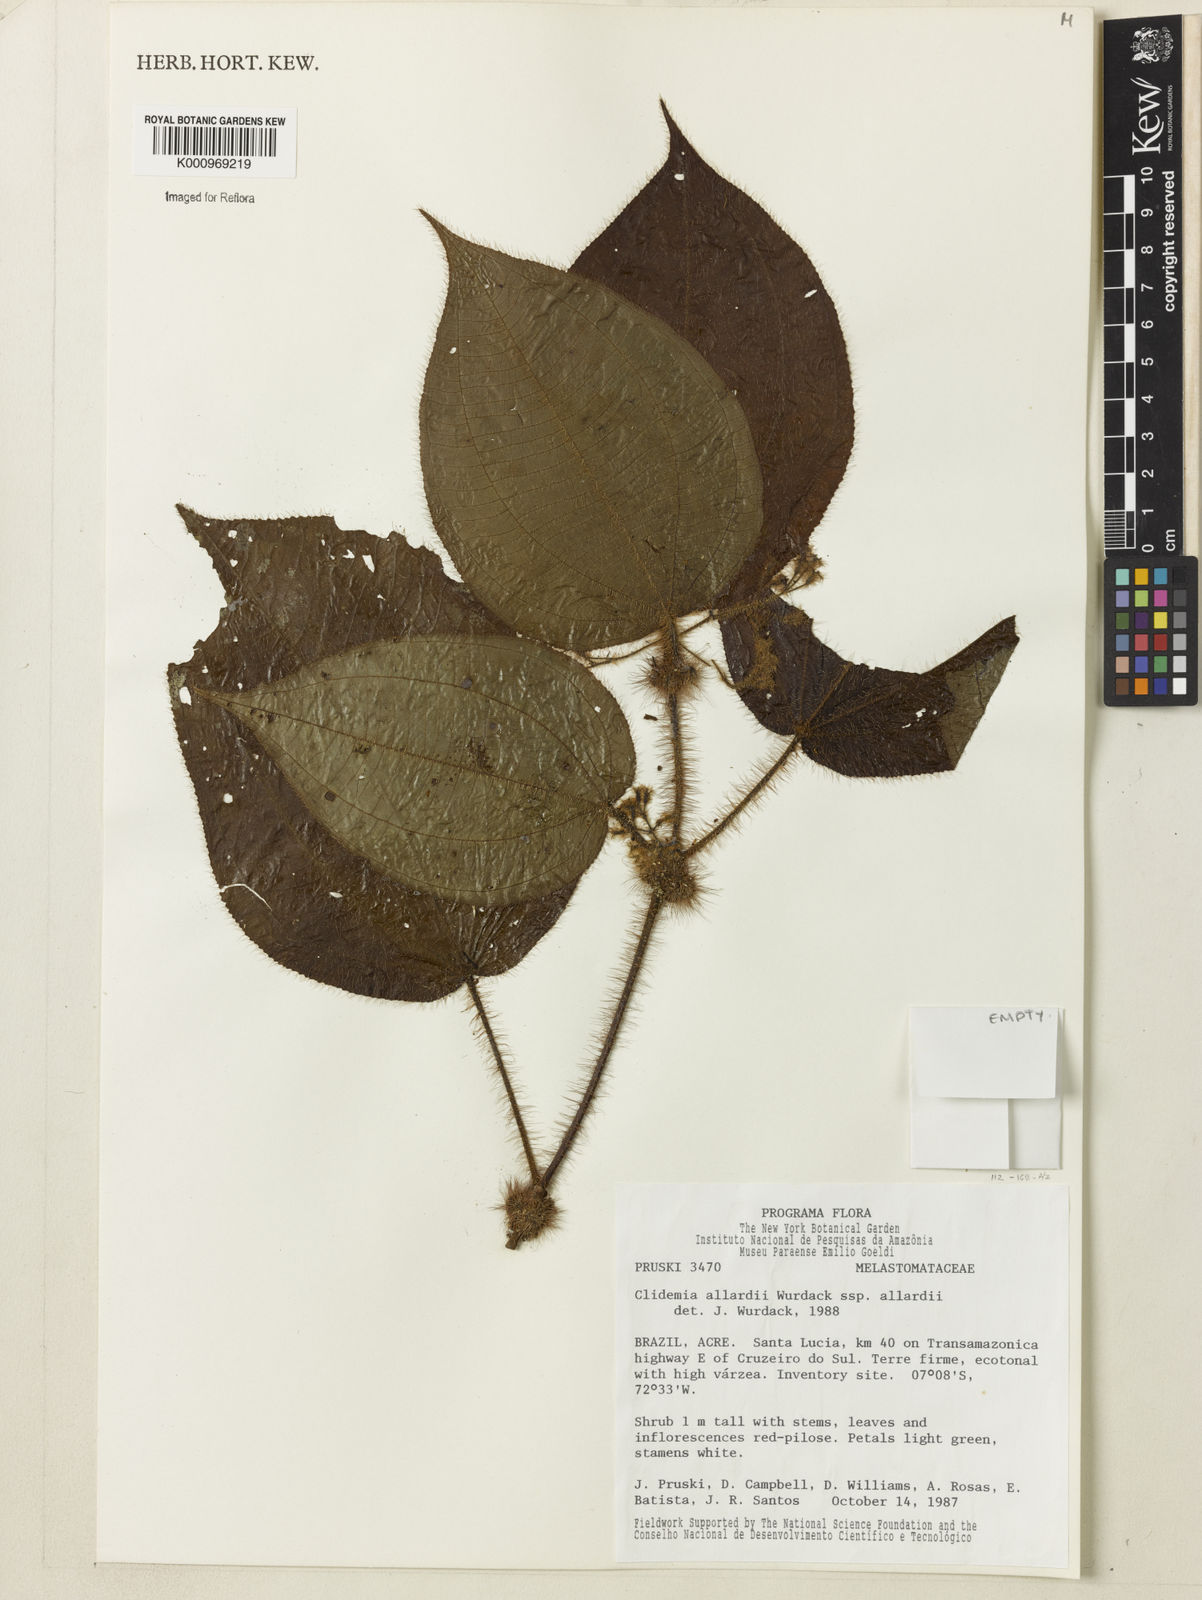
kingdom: Plantae
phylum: Tracheophyta
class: Magnoliopsida
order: Myrtales
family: Melastomataceae
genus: Miconia
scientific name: Miconia allardii
